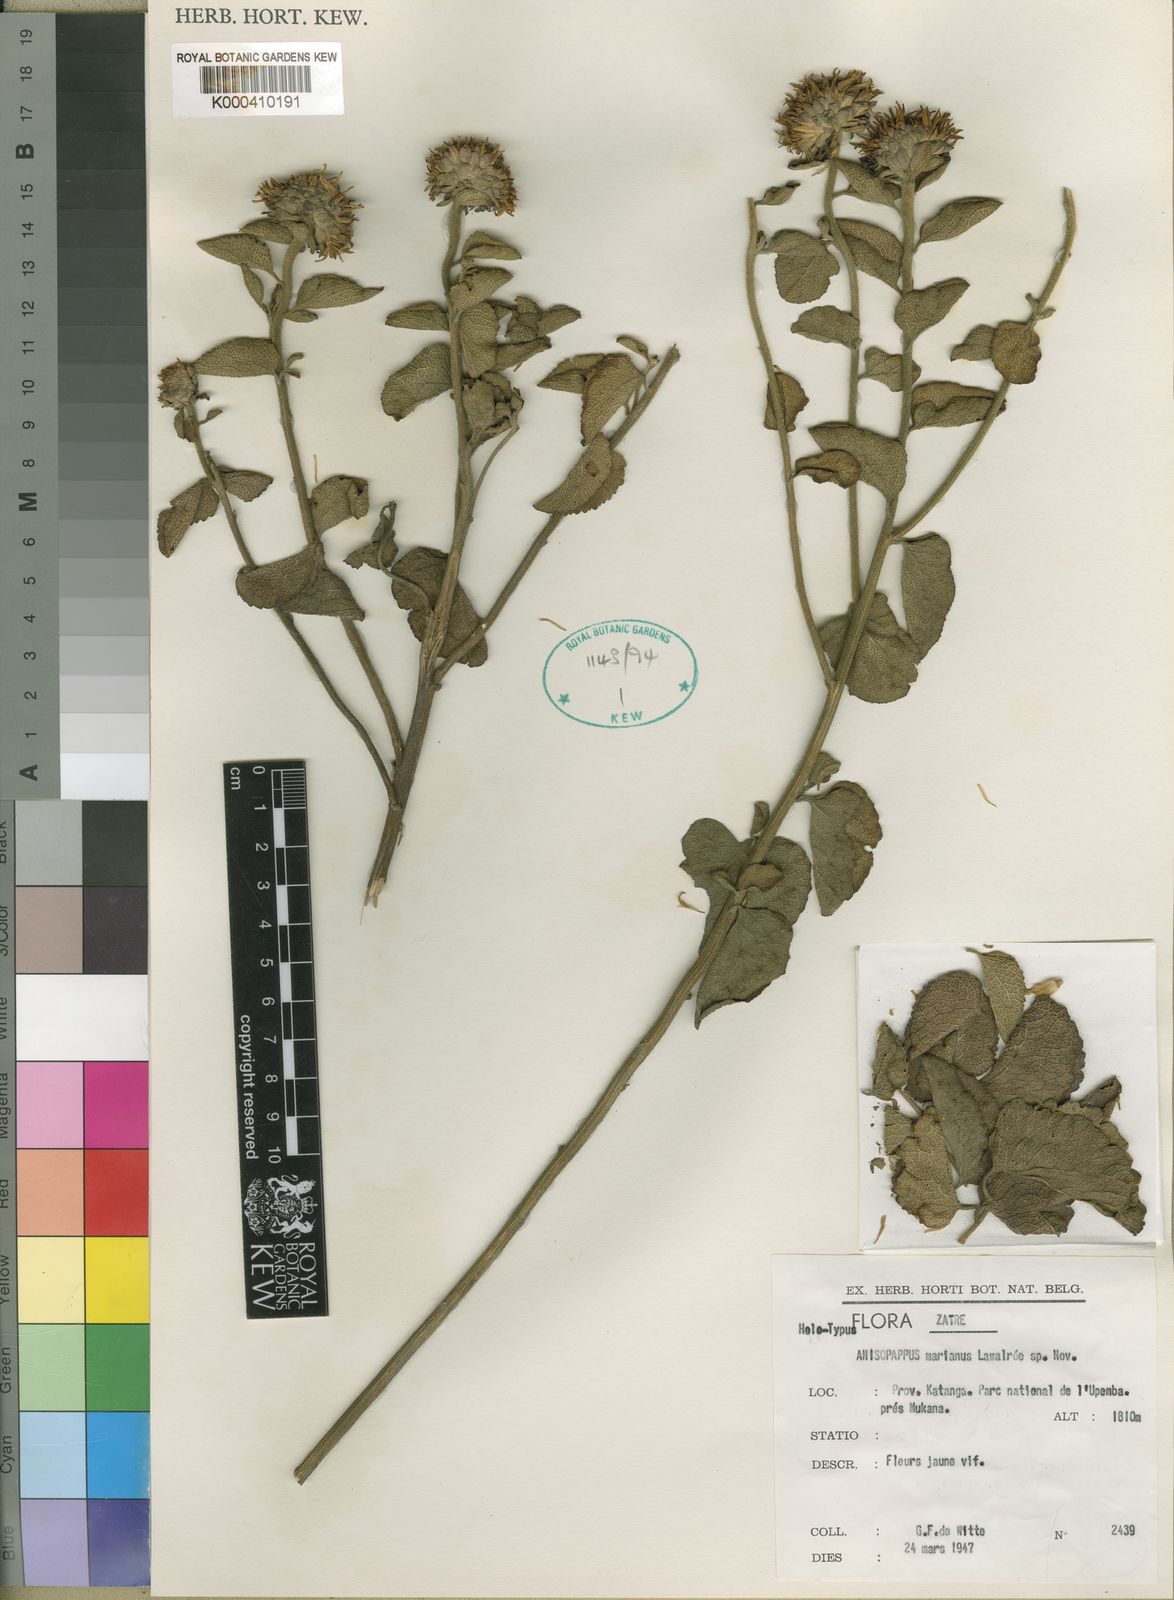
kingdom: Plantae
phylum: Tracheophyta
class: Magnoliopsida
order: Asterales
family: Asteraceae
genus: Anisopappus
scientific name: Anisopappus
